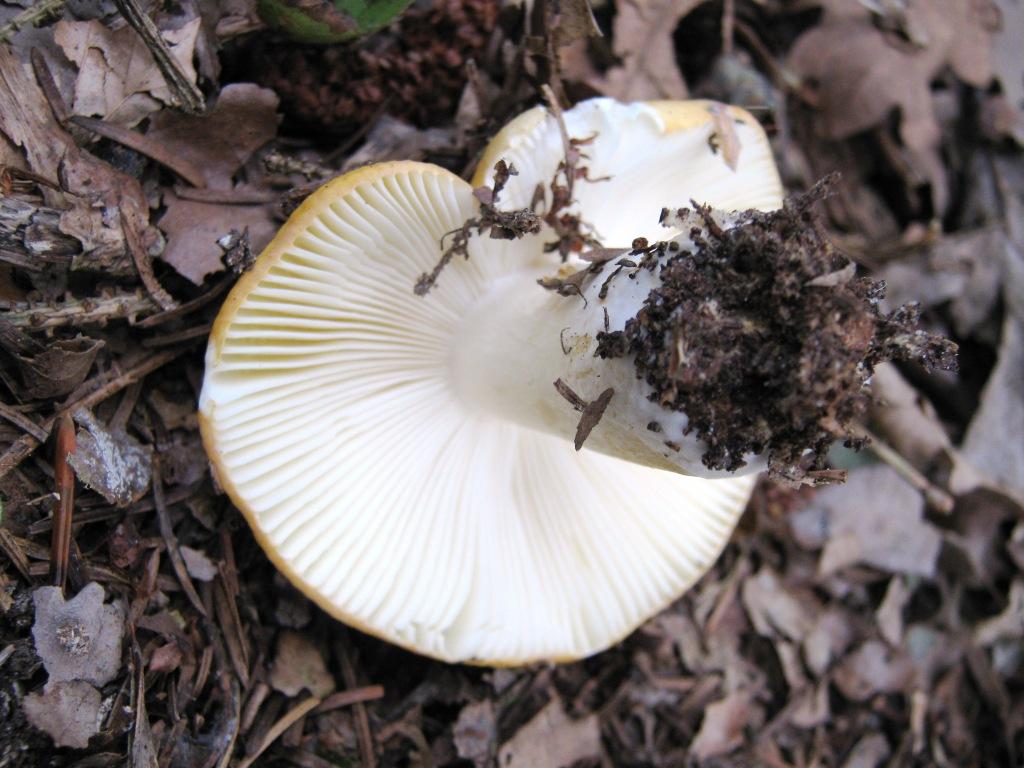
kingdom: Fungi
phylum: Basidiomycota
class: Agaricomycetes
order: Russulales
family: Russulaceae
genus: Russula
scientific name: Russula ochroleuca
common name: okkergul skørhat
